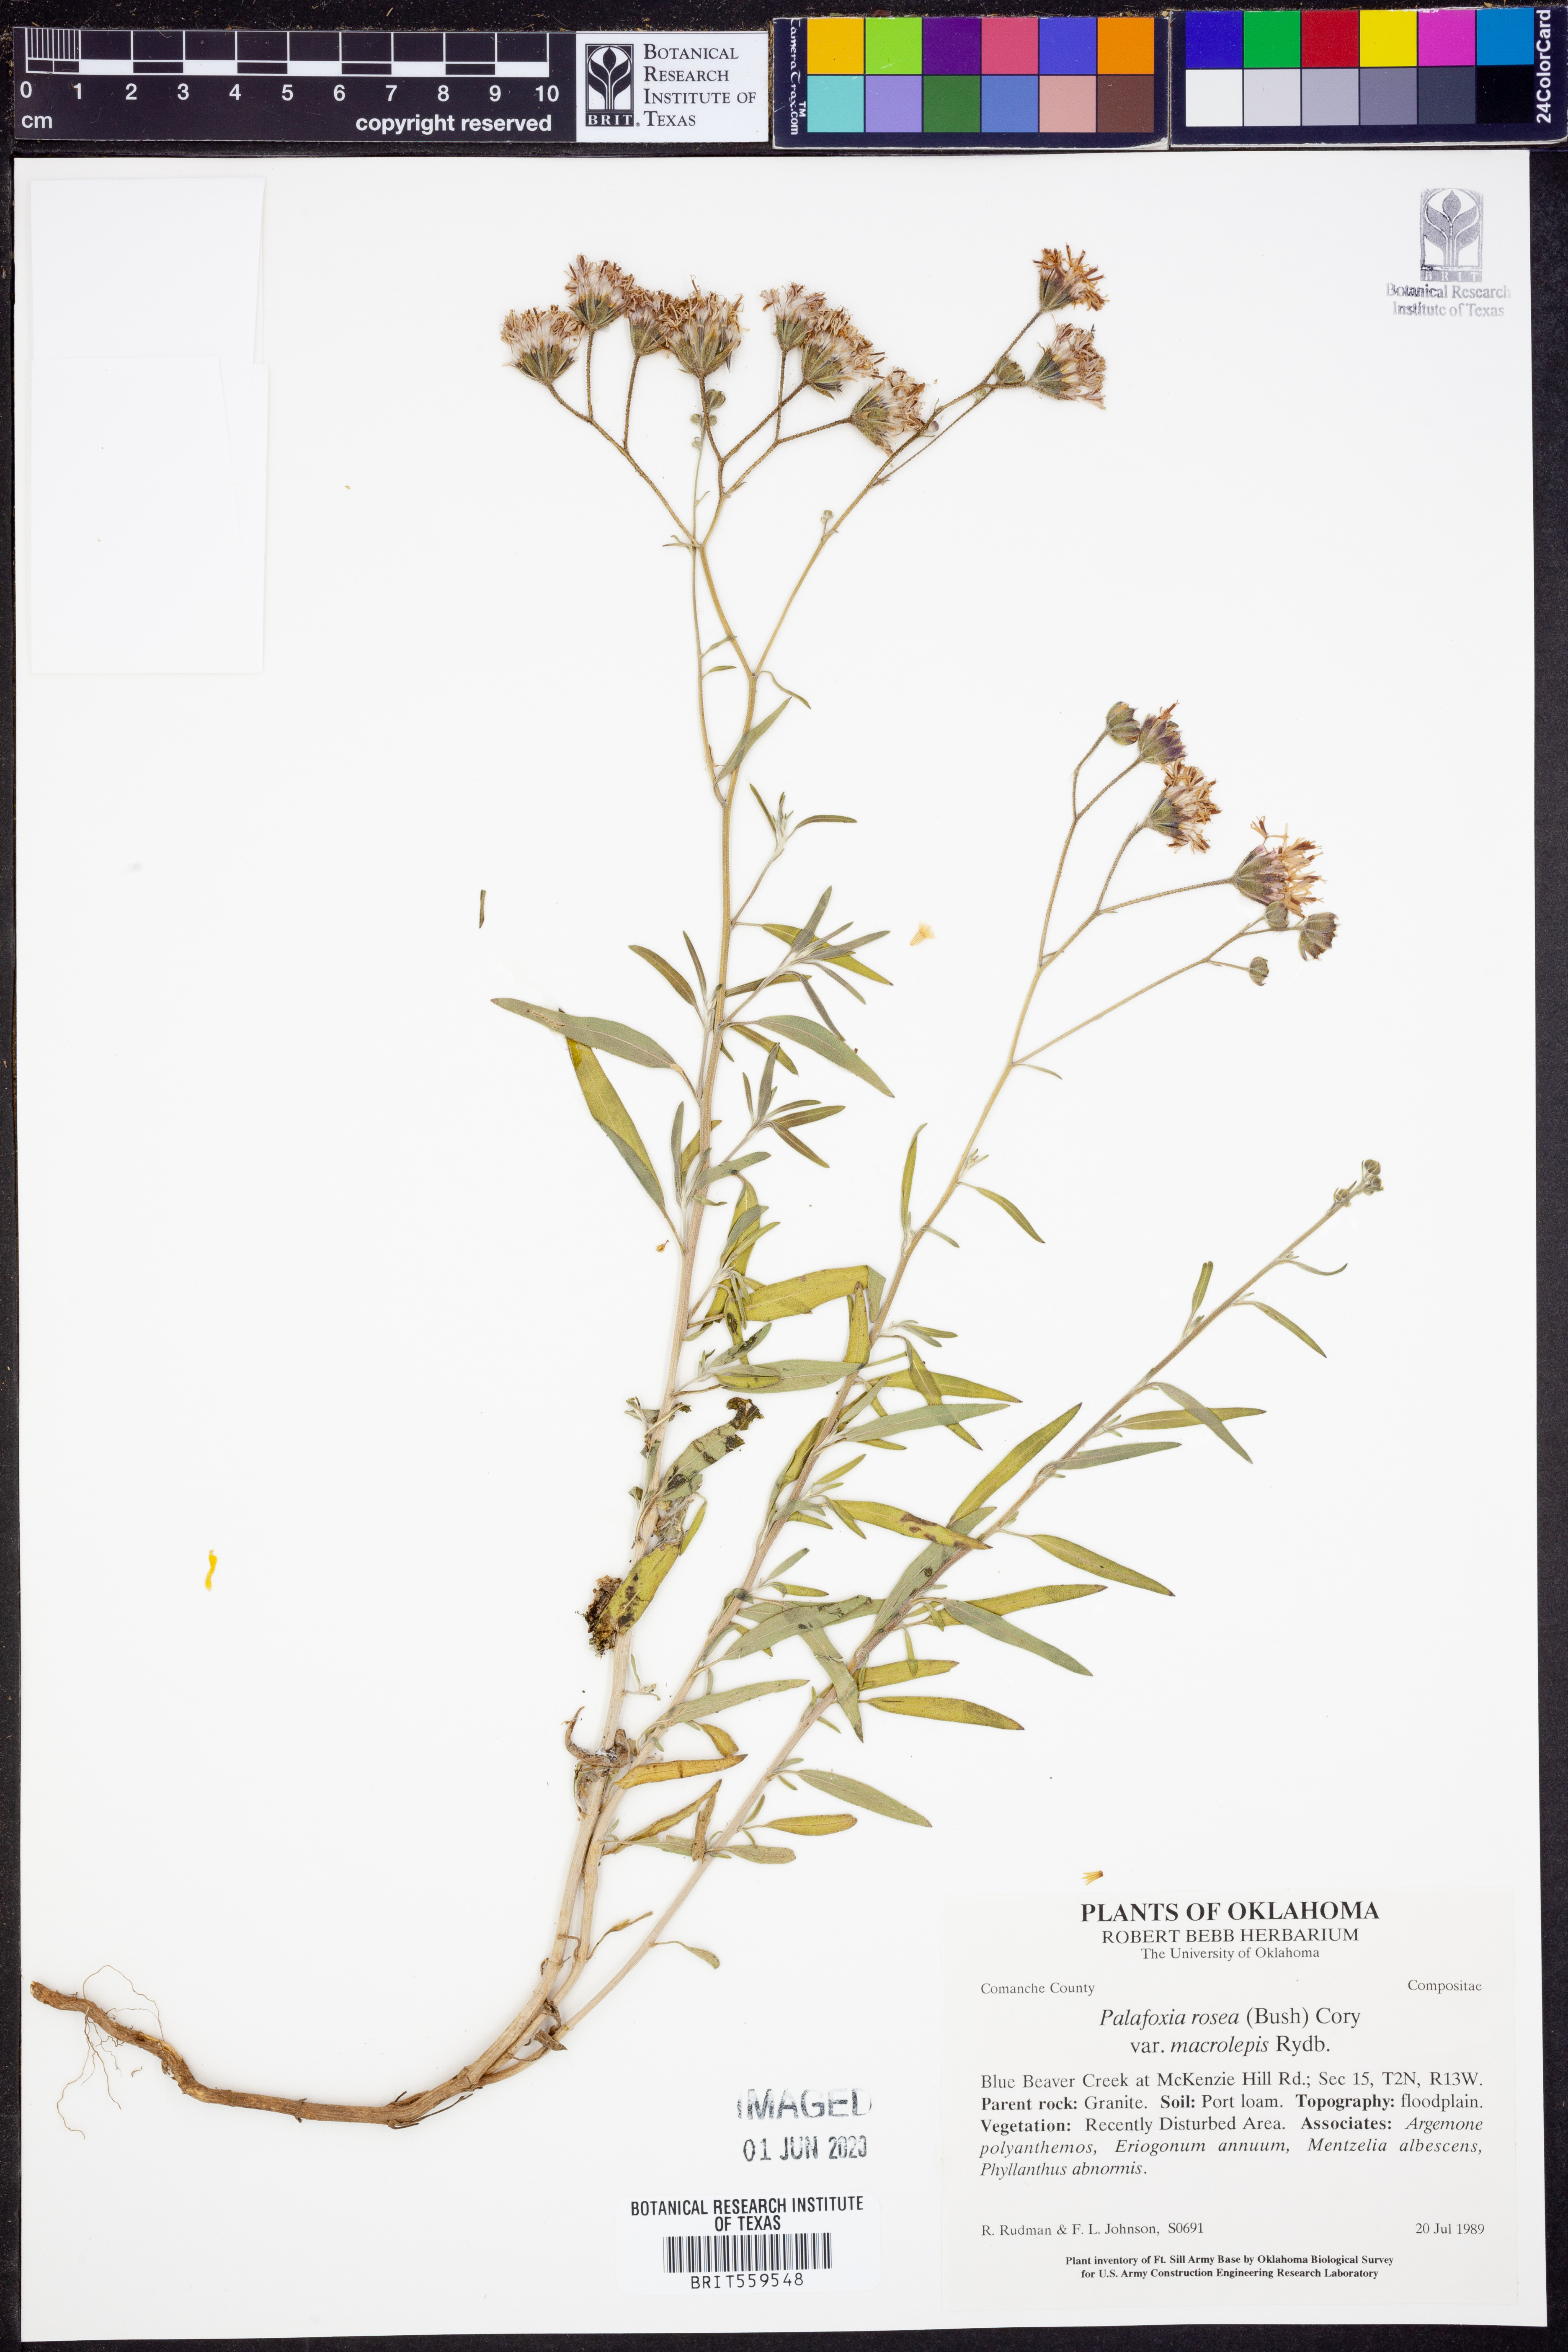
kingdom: Plantae
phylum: Tracheophyta
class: Magnoliopsida
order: Asterales
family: Asteraceae
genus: Palafoxia
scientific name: Palafoxia rosea
